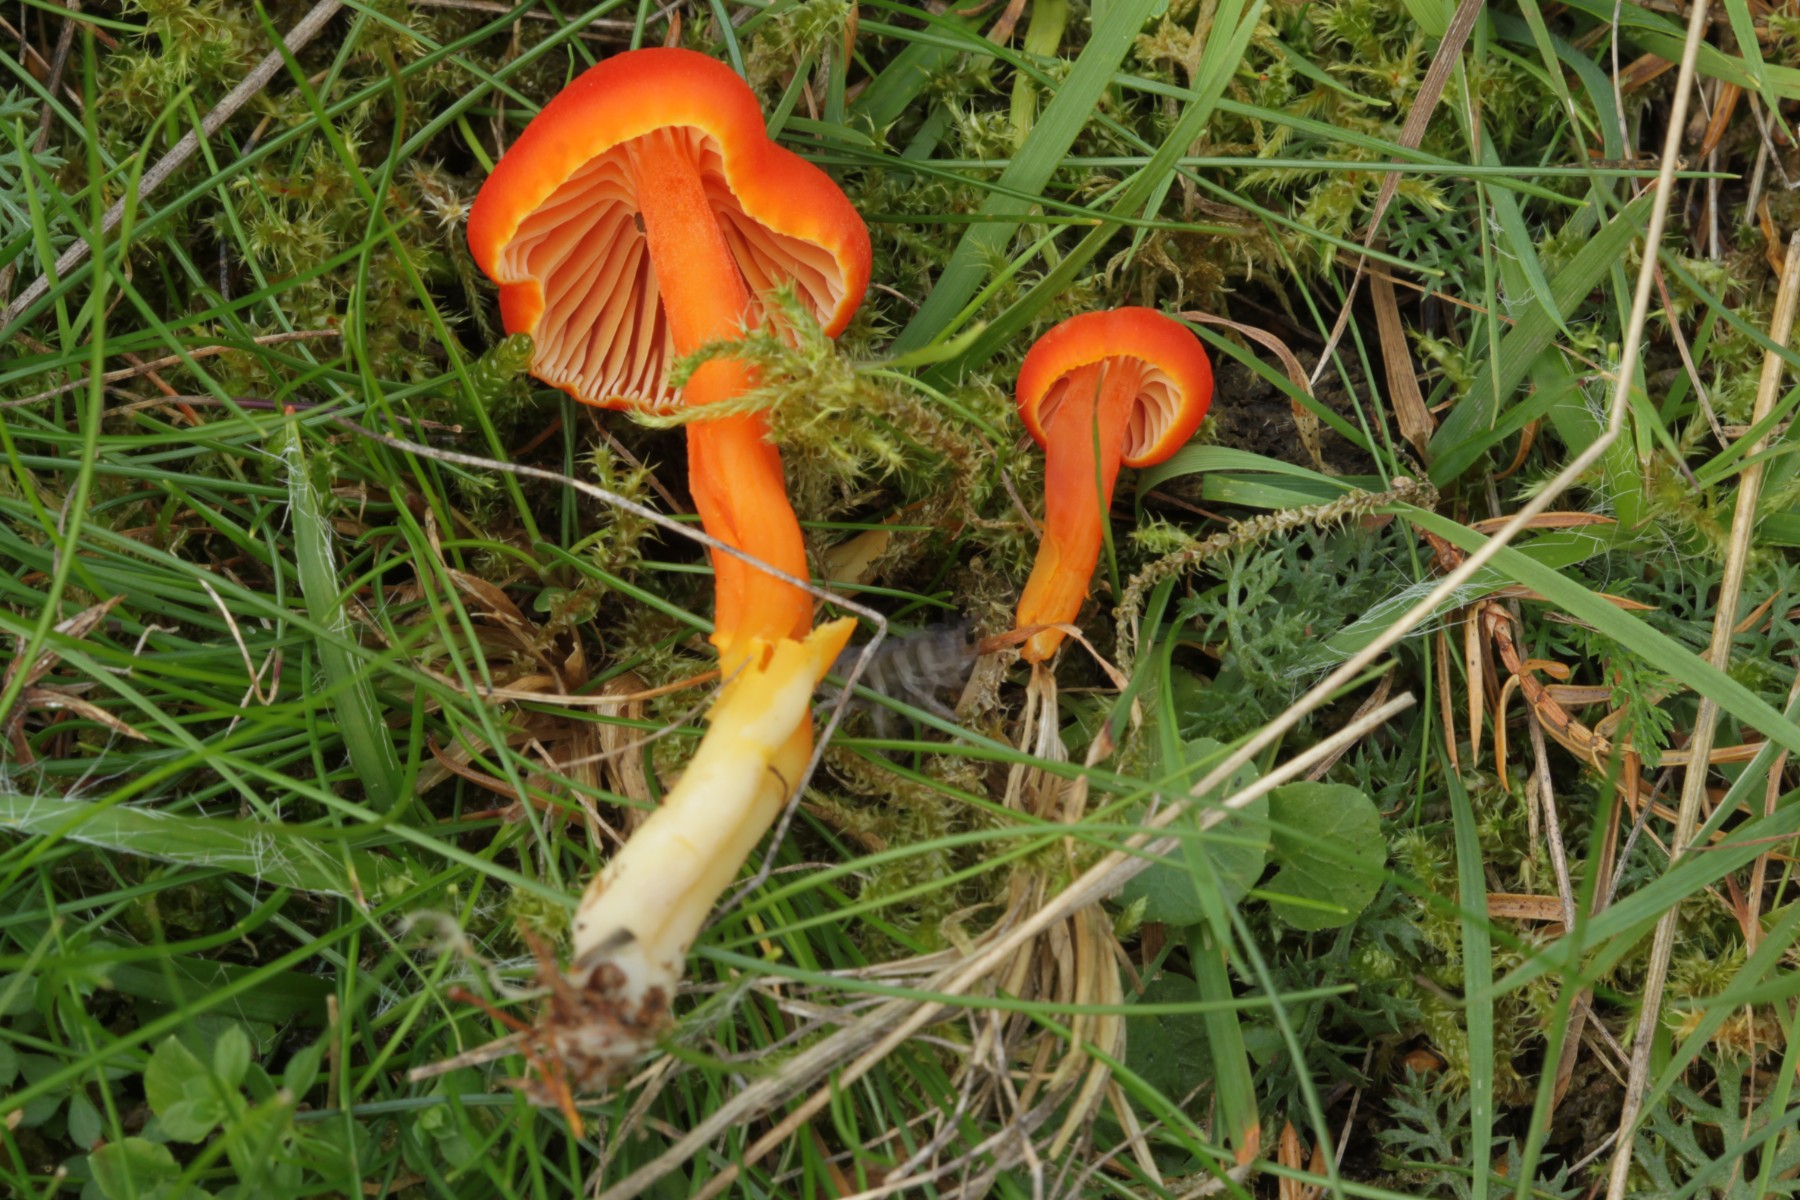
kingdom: Fungi
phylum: Basidiomycota
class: Agaricomycetes
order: Agaricales
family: Hygrophoraceae
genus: Hygrocybe
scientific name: Hygrocybe
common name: vokshat
